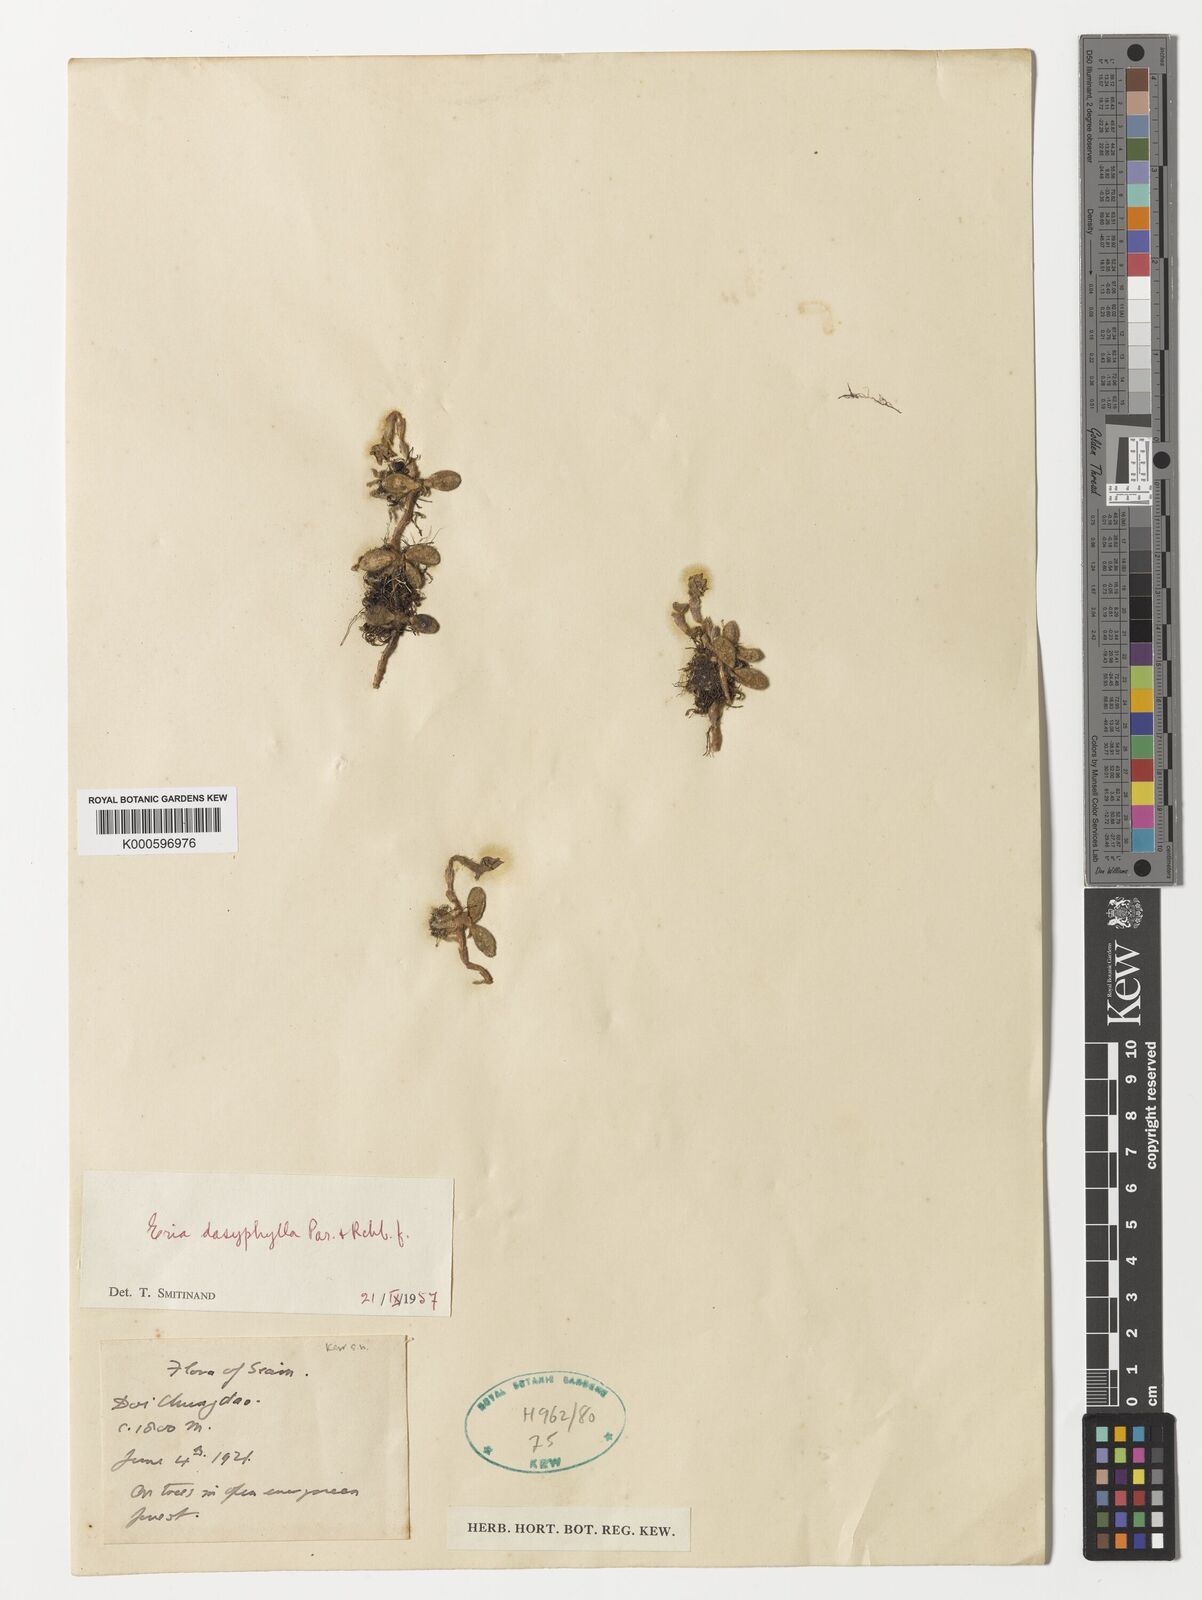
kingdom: Plantae
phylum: Tracheophyta
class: Liliopsida
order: Asparagales
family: Orchidaceae
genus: Trichotosia
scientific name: Trichotosia dasyphylla
